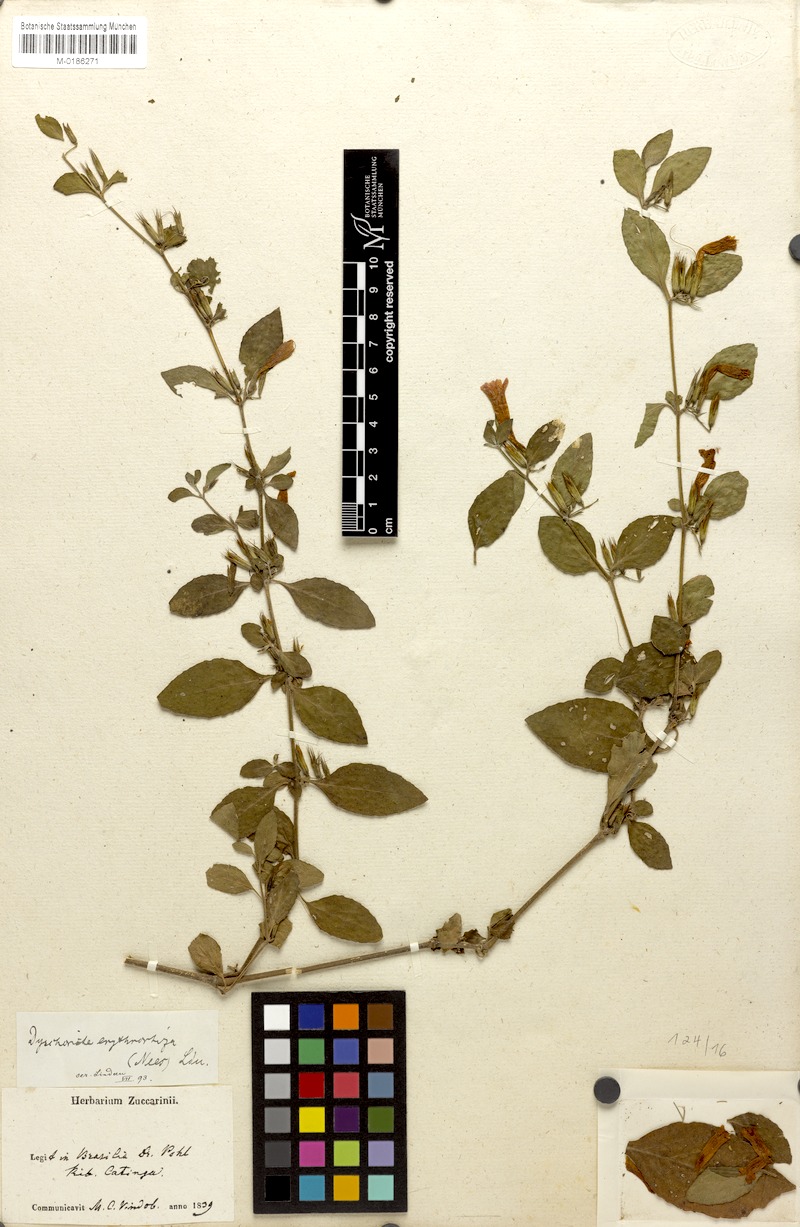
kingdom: Plantae
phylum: Tracheophyta
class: Magnoliopsida
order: Lamiales
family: Acanthaceae
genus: Dyschoriste
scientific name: Dyschoriste erythrorhiza
